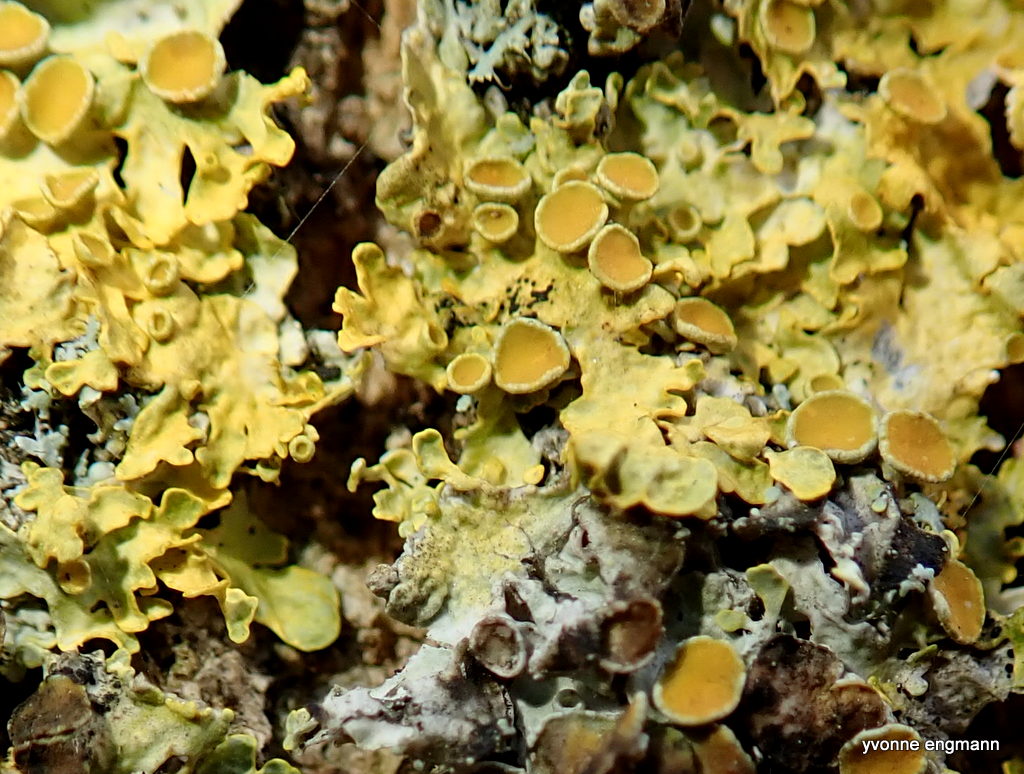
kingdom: Fungi
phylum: Ascomycota
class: Lecanoromycetes
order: Teloschistales
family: Teloschistaceae
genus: Xanthoria
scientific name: Xanthoria parietina
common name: almindelig væggelav
